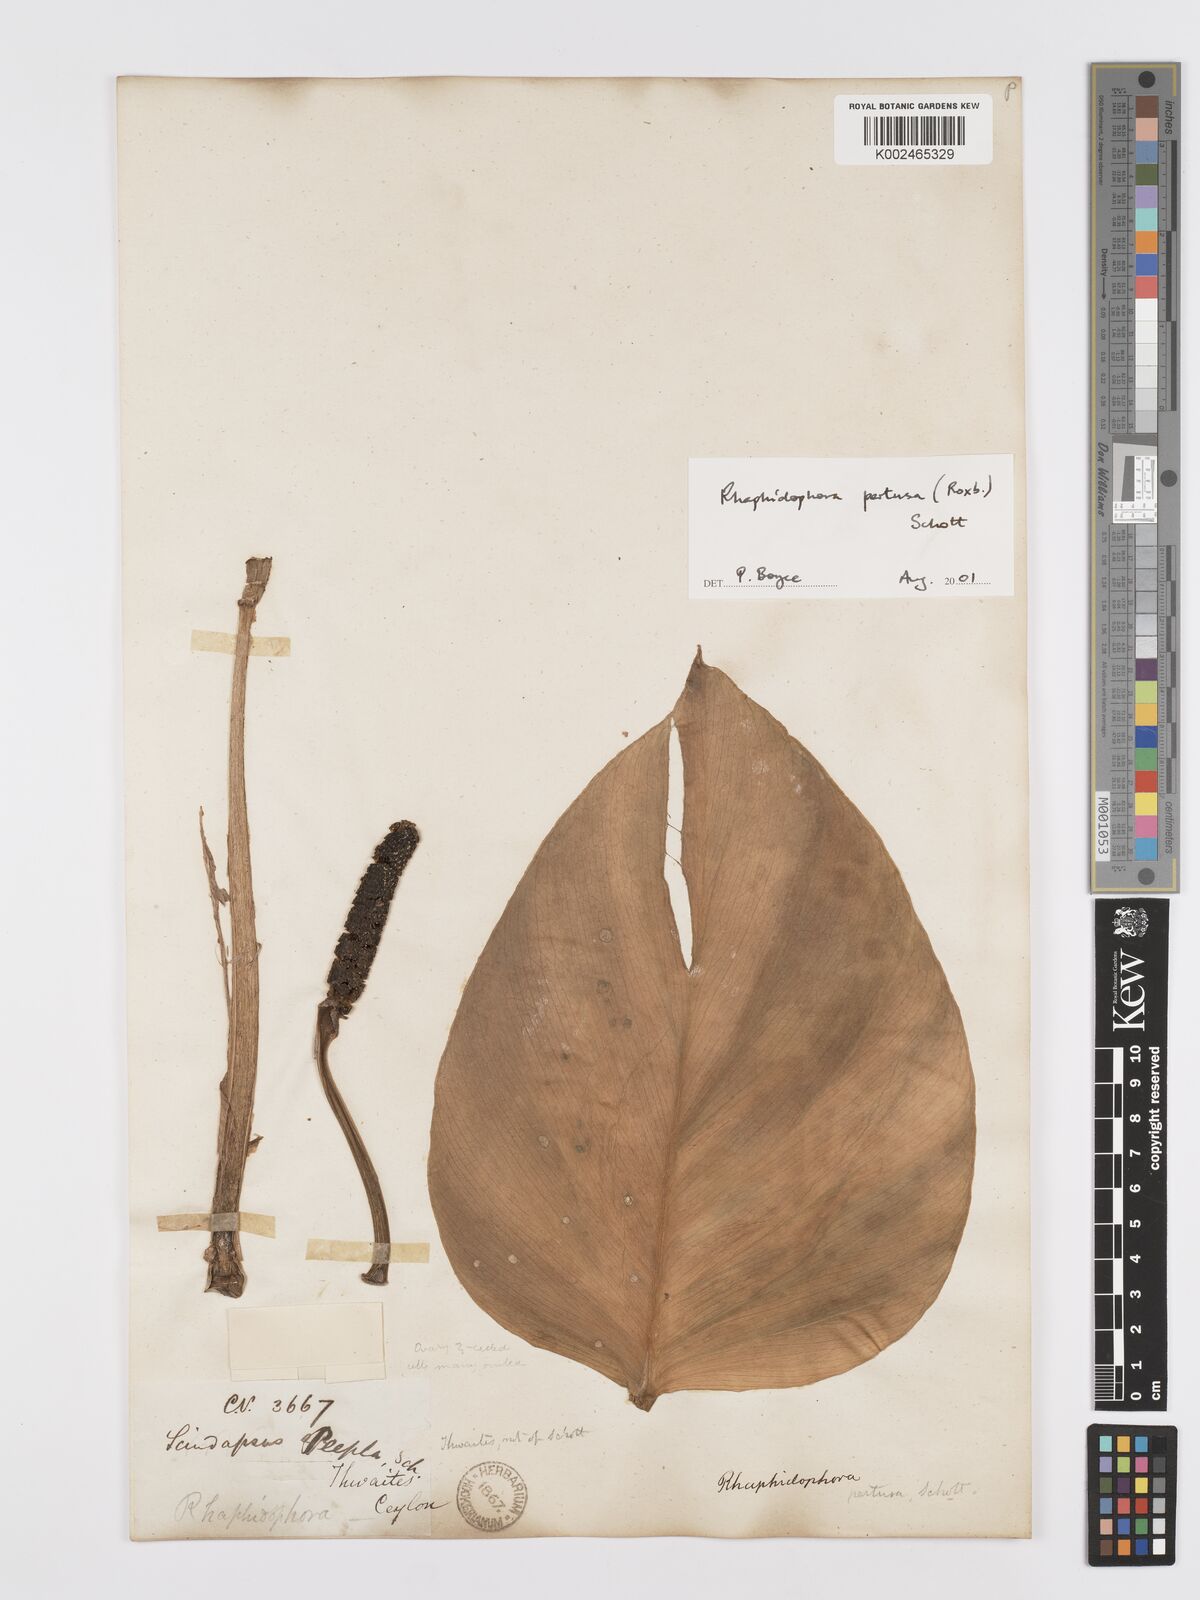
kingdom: Plantae
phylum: Tracheophyta
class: Liliopsida
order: Alismatales
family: Araceae
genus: Rhaphidophora
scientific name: Rhaphidophora pertusa
